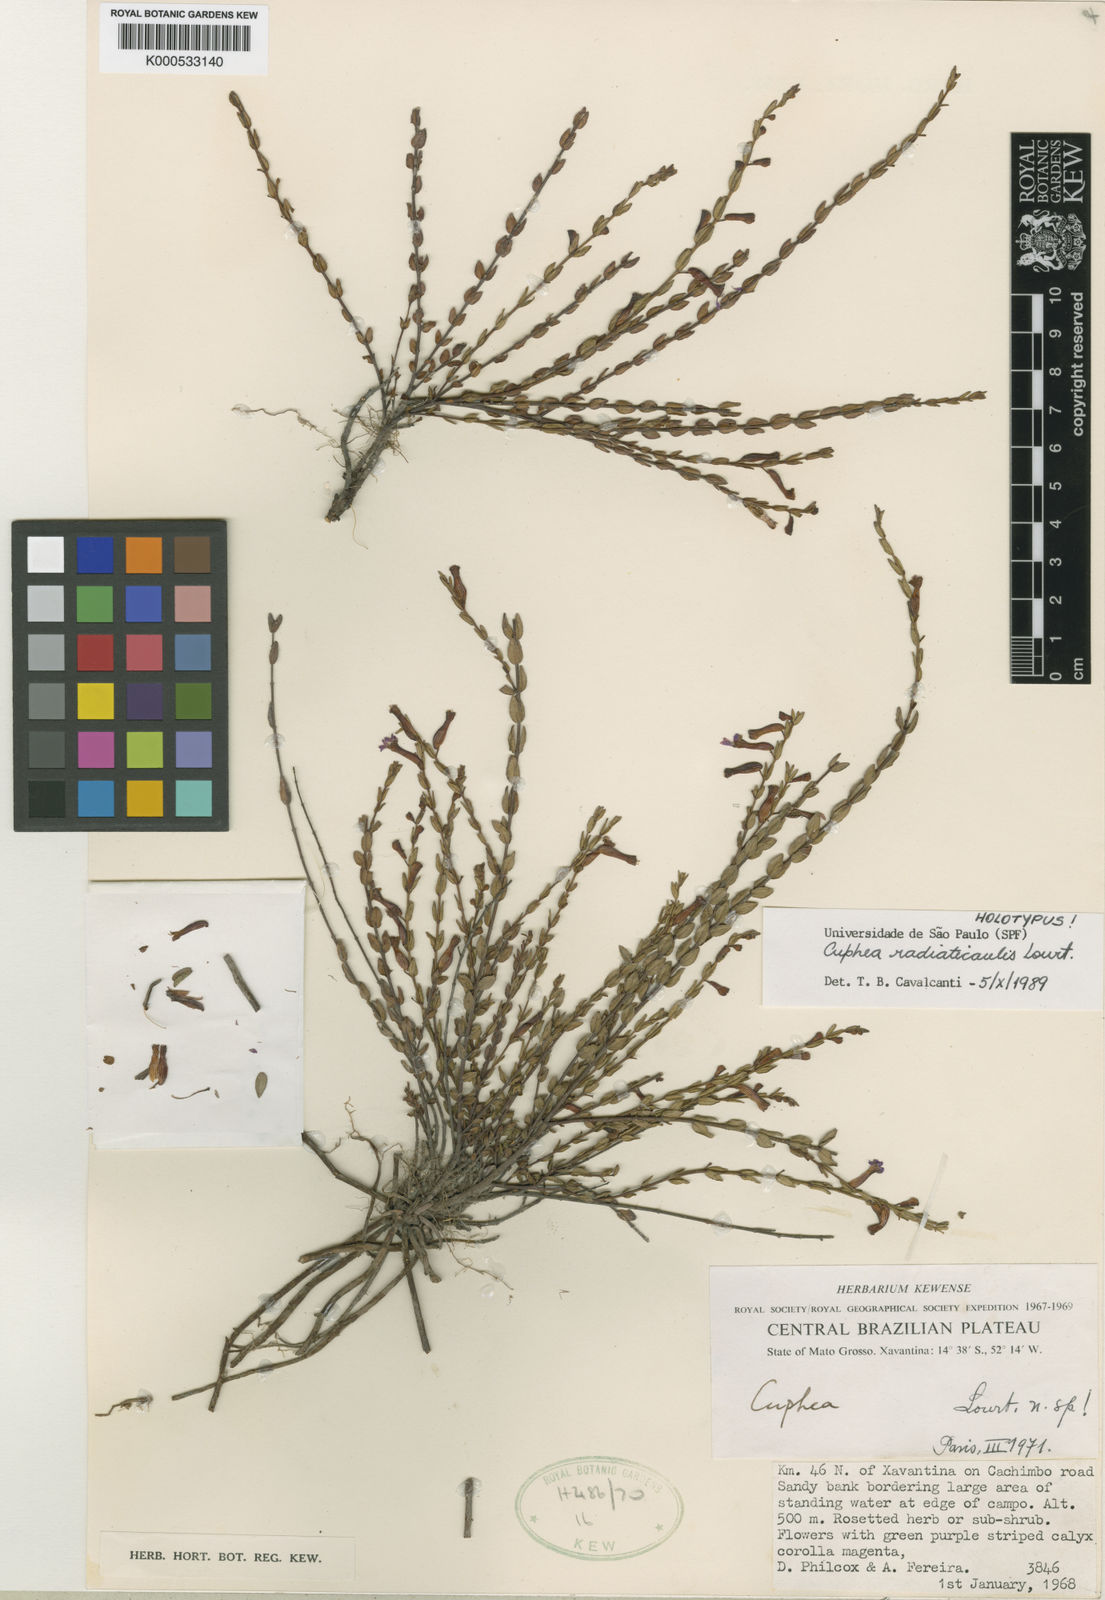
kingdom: Plantae
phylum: Tracheophyta
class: Magnoliopsida
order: Myrtales
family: Lythraceae
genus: Cuphea
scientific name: Cuphea radiaticaulis
